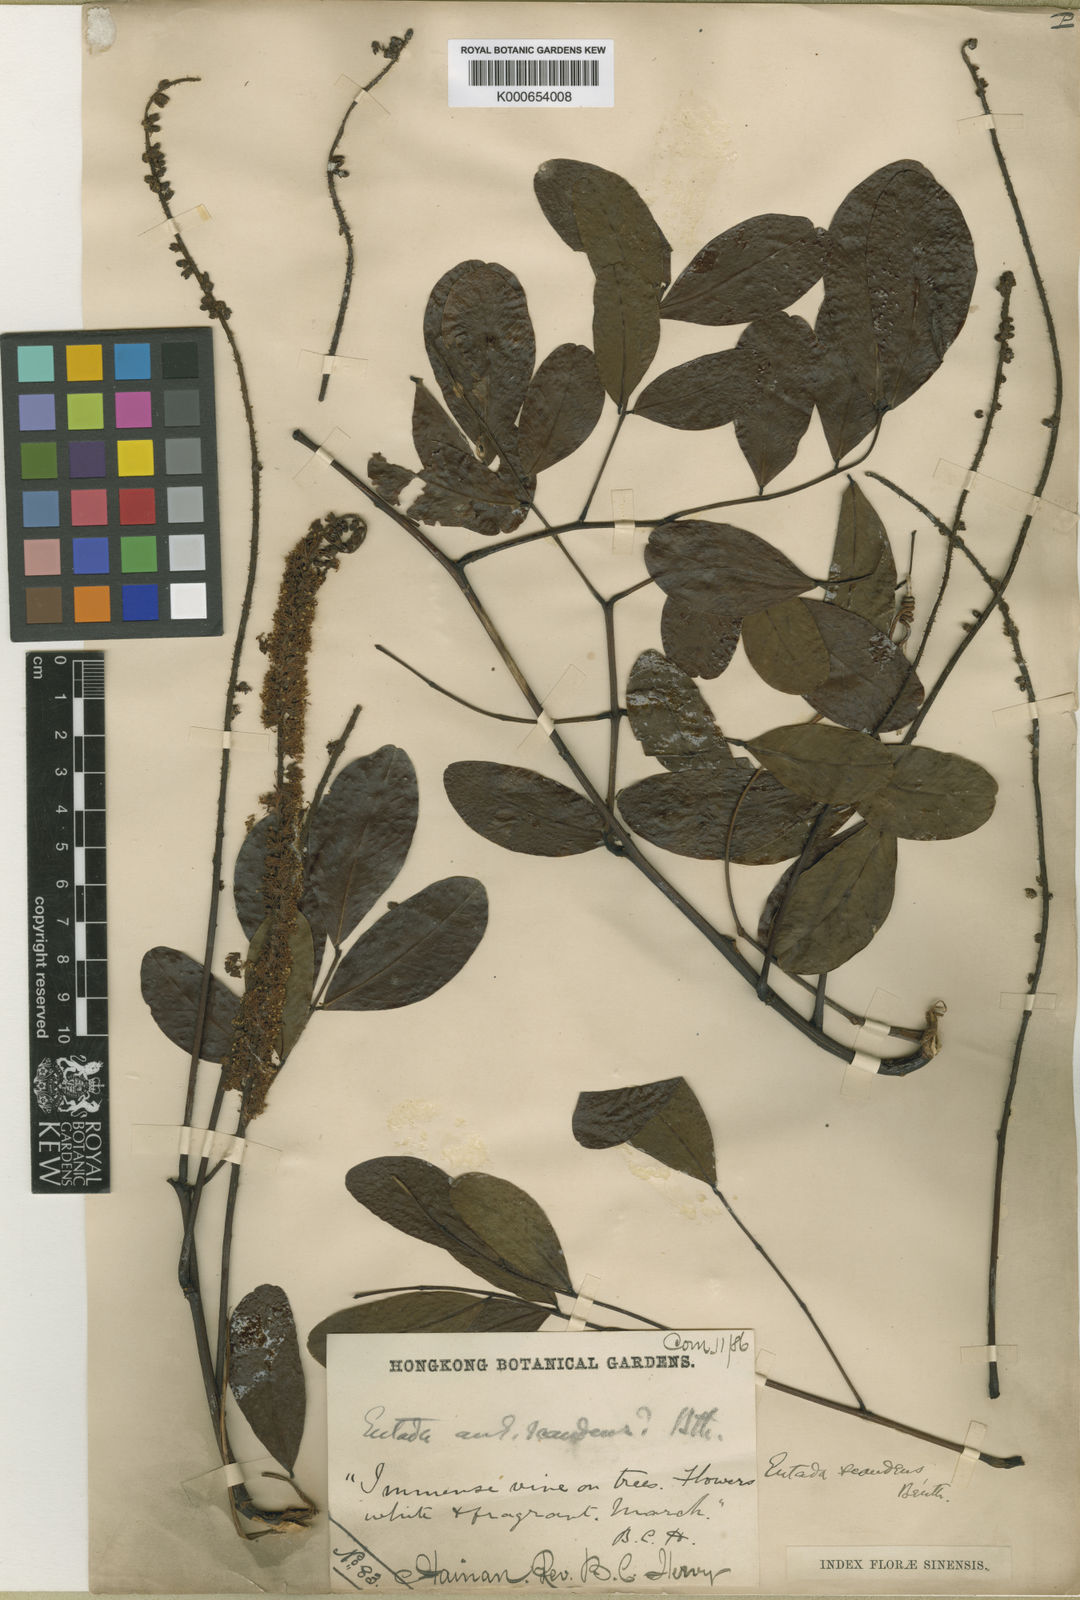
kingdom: Plantae
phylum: Tracheophyta
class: Magnoliopsida
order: Fabales
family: Fabaceae
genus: Entada
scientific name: Entada phaseoloides
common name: Matchbox-bean
